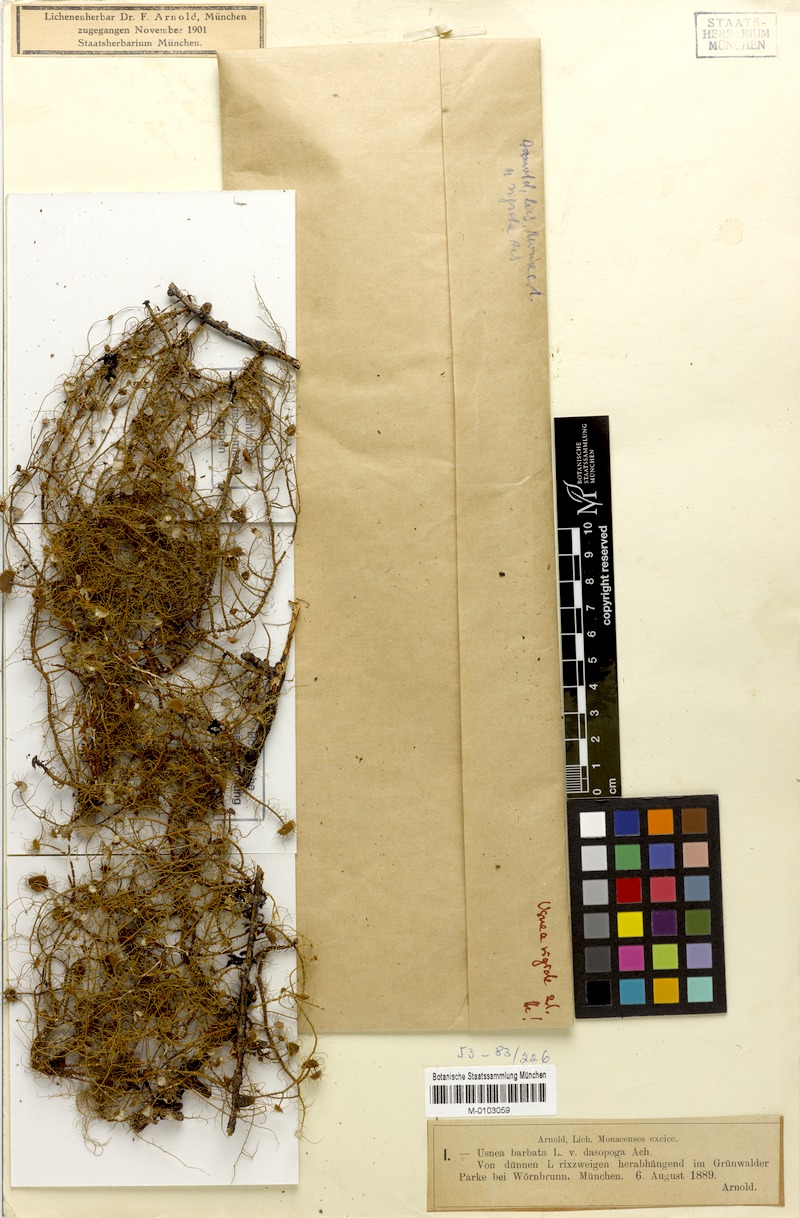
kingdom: Fungi
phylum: Ascomycota
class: Lecanoromycetes
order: Lecanorales
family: Parmeliaceae
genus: Usnea
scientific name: Usnea quasirigida
